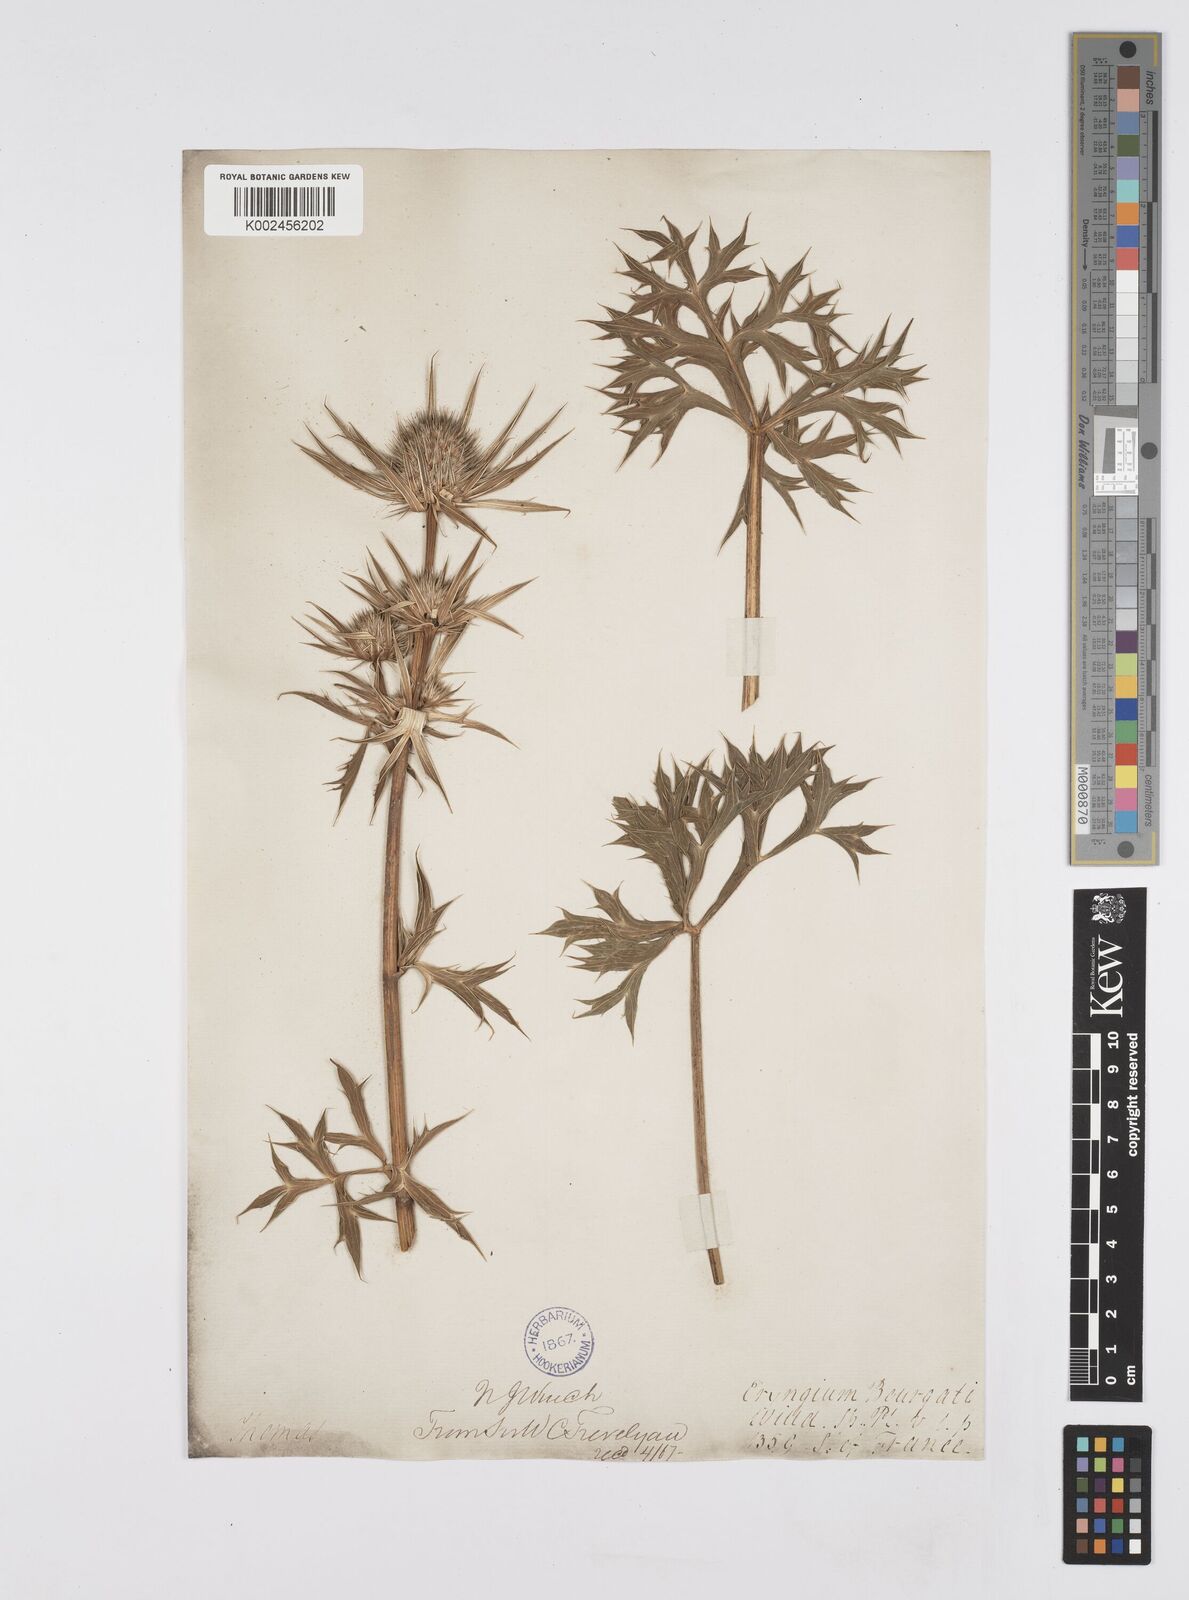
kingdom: Plantae
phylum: Tracheophyta
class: Magnoliopsida
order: Apiales
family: Apiaceae
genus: Eryngium
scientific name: Eryngium bourgatii
